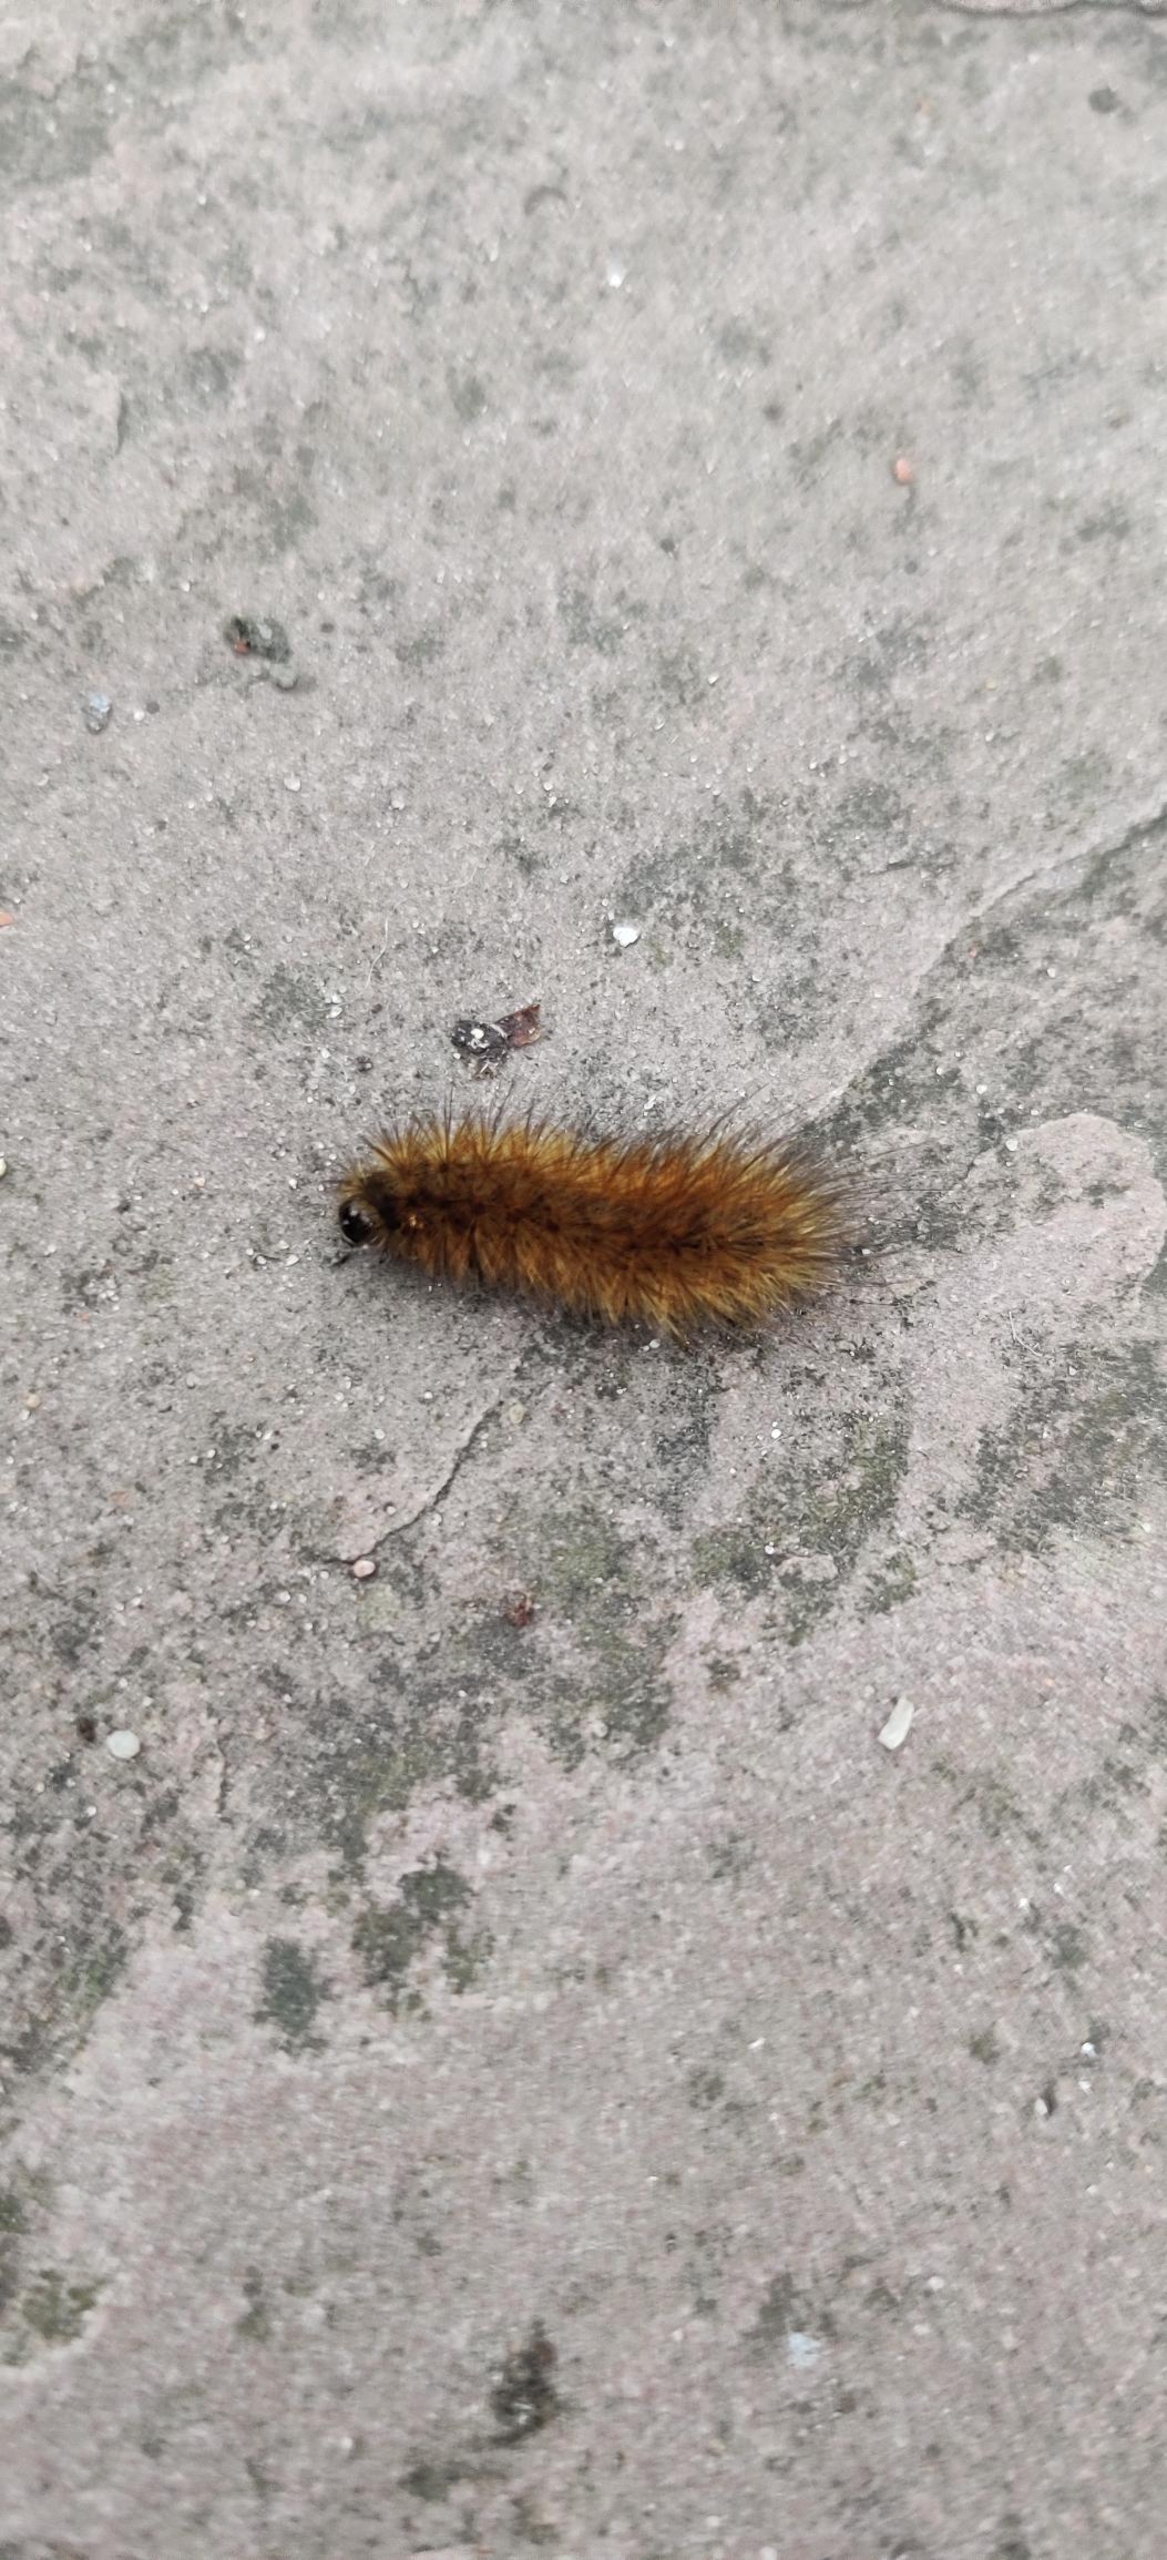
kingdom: Animalia
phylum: Arthropoda
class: Insecta
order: Lepidoptera
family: Erebidae
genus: Phragmatobia
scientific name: Phragmatobia fuliginosa
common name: Kanelbjørn
